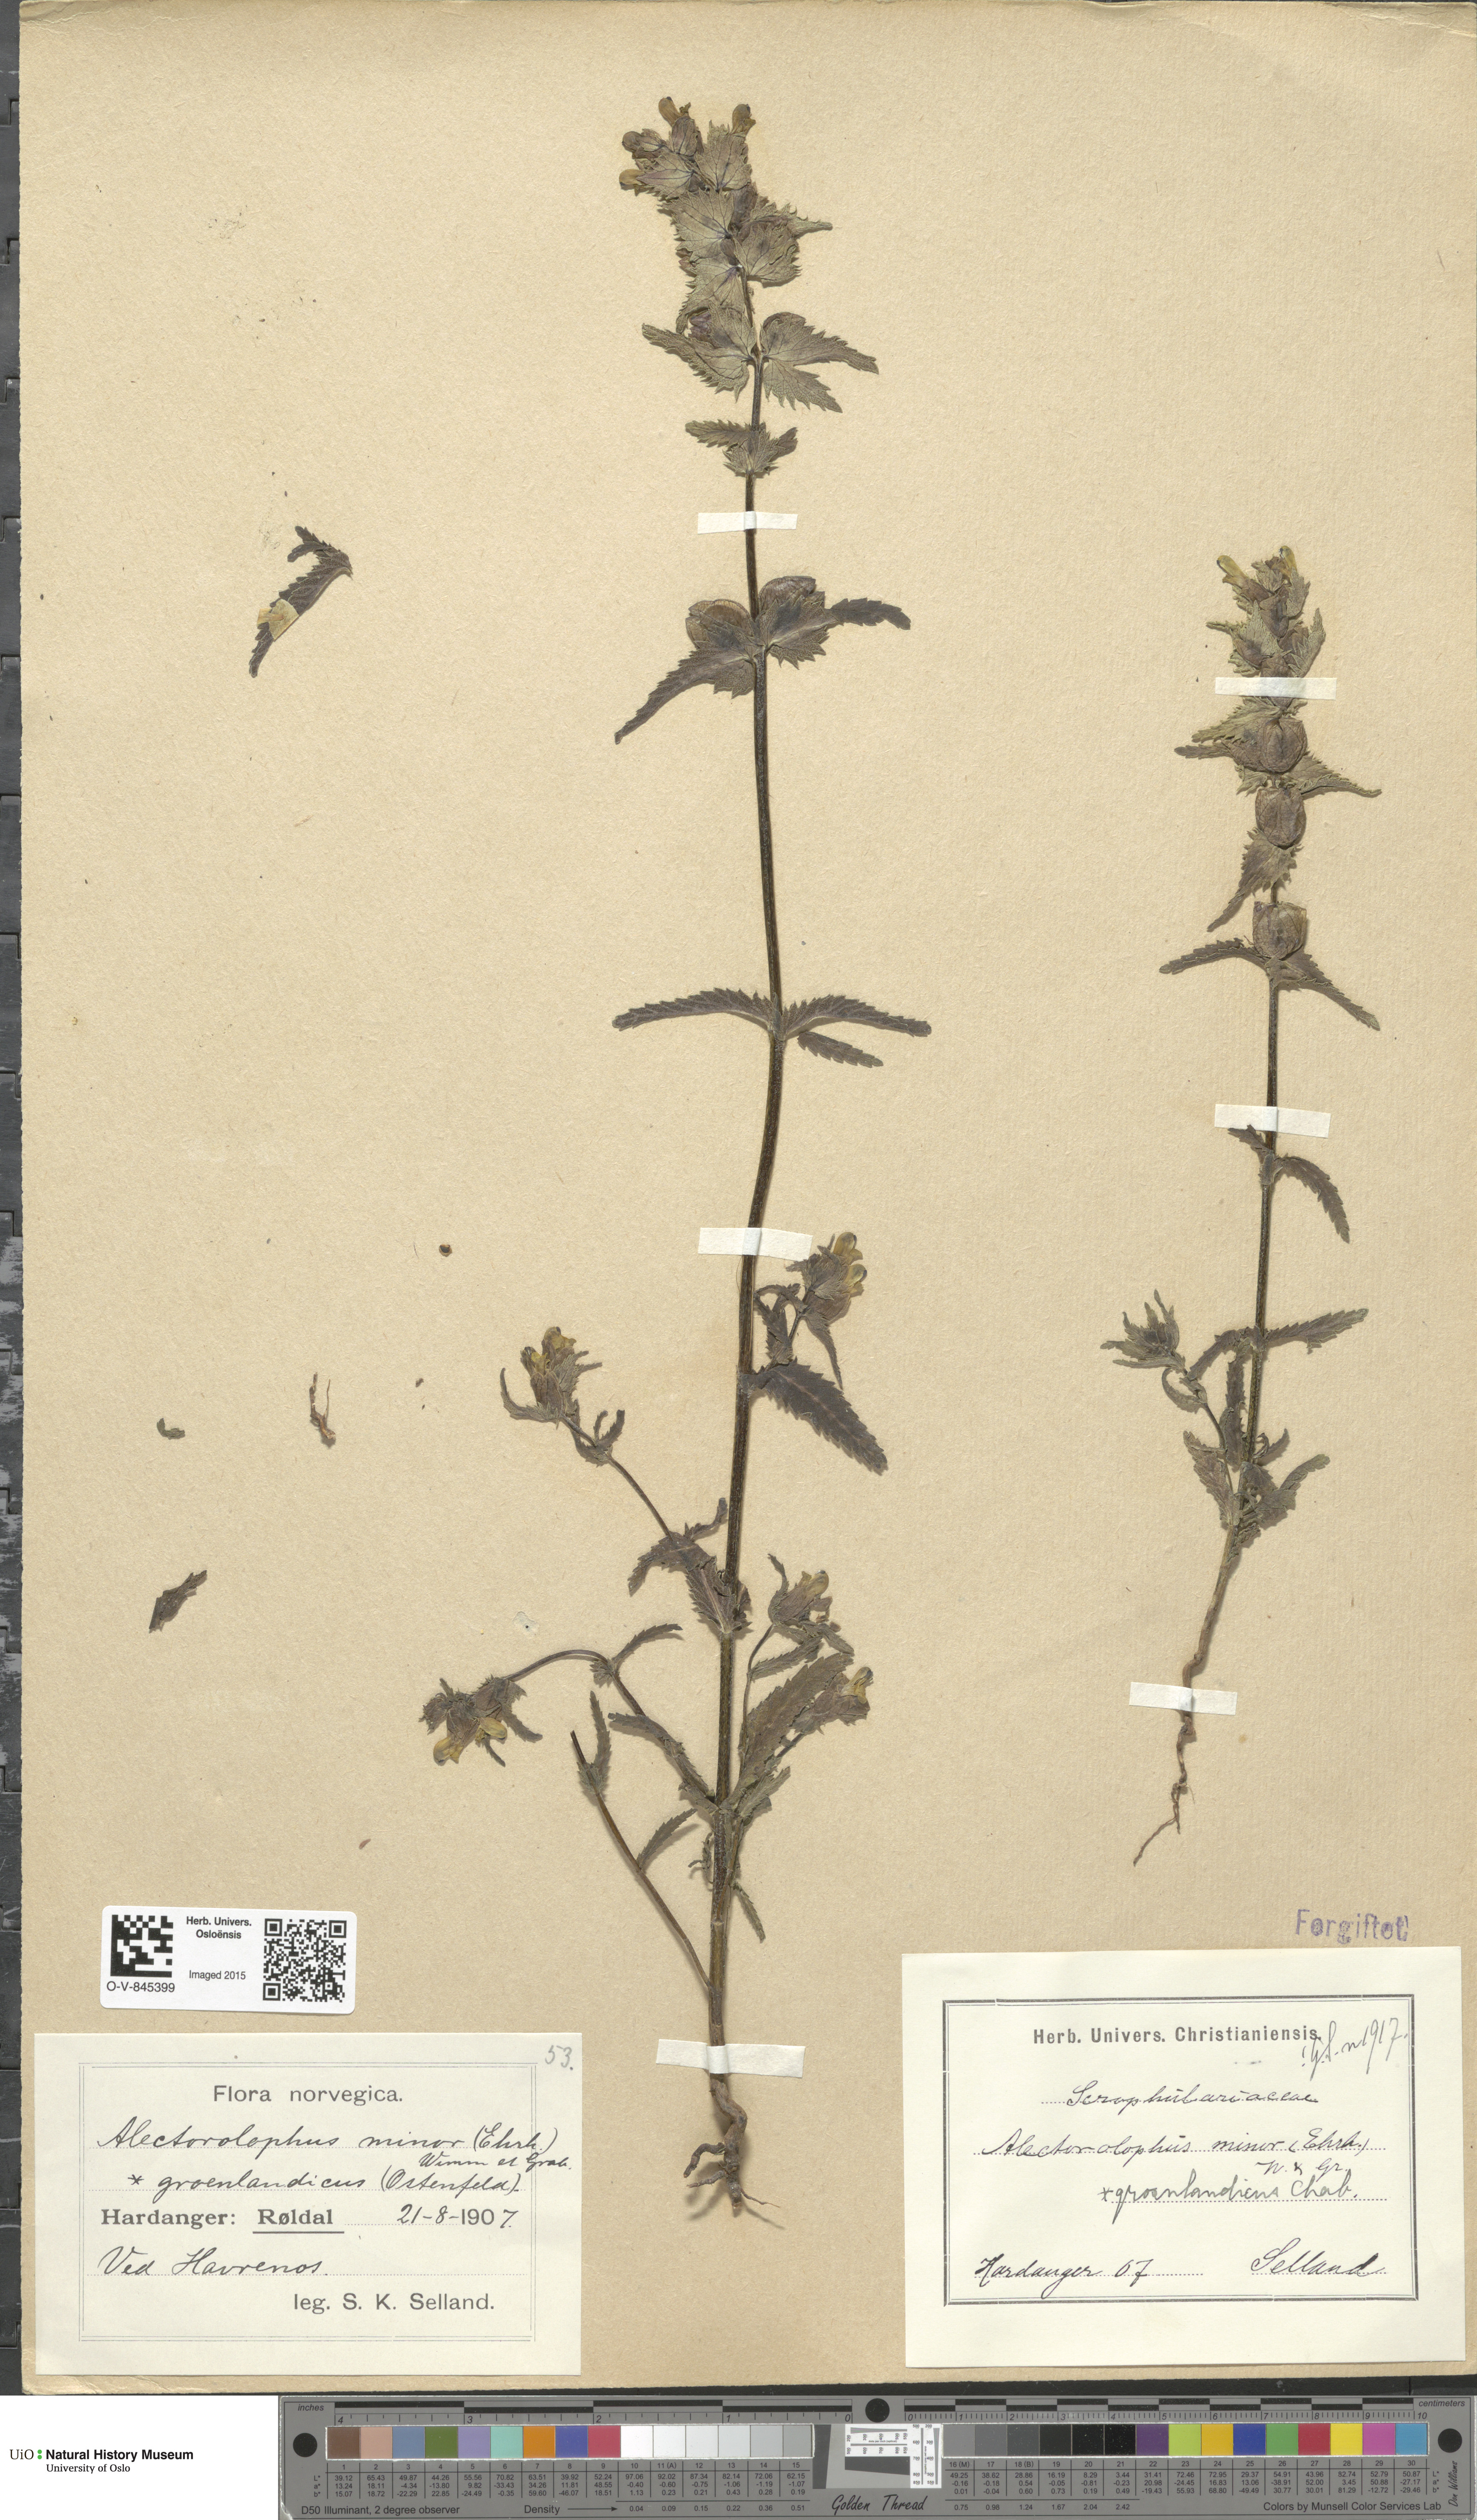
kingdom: Plantae
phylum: Tracheophyta
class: Magnoliopsida
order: Lamiales
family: Orobanchaceae
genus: Rhinanthus
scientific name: Rhinanthus groenlandicus
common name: Little yellow rattle
